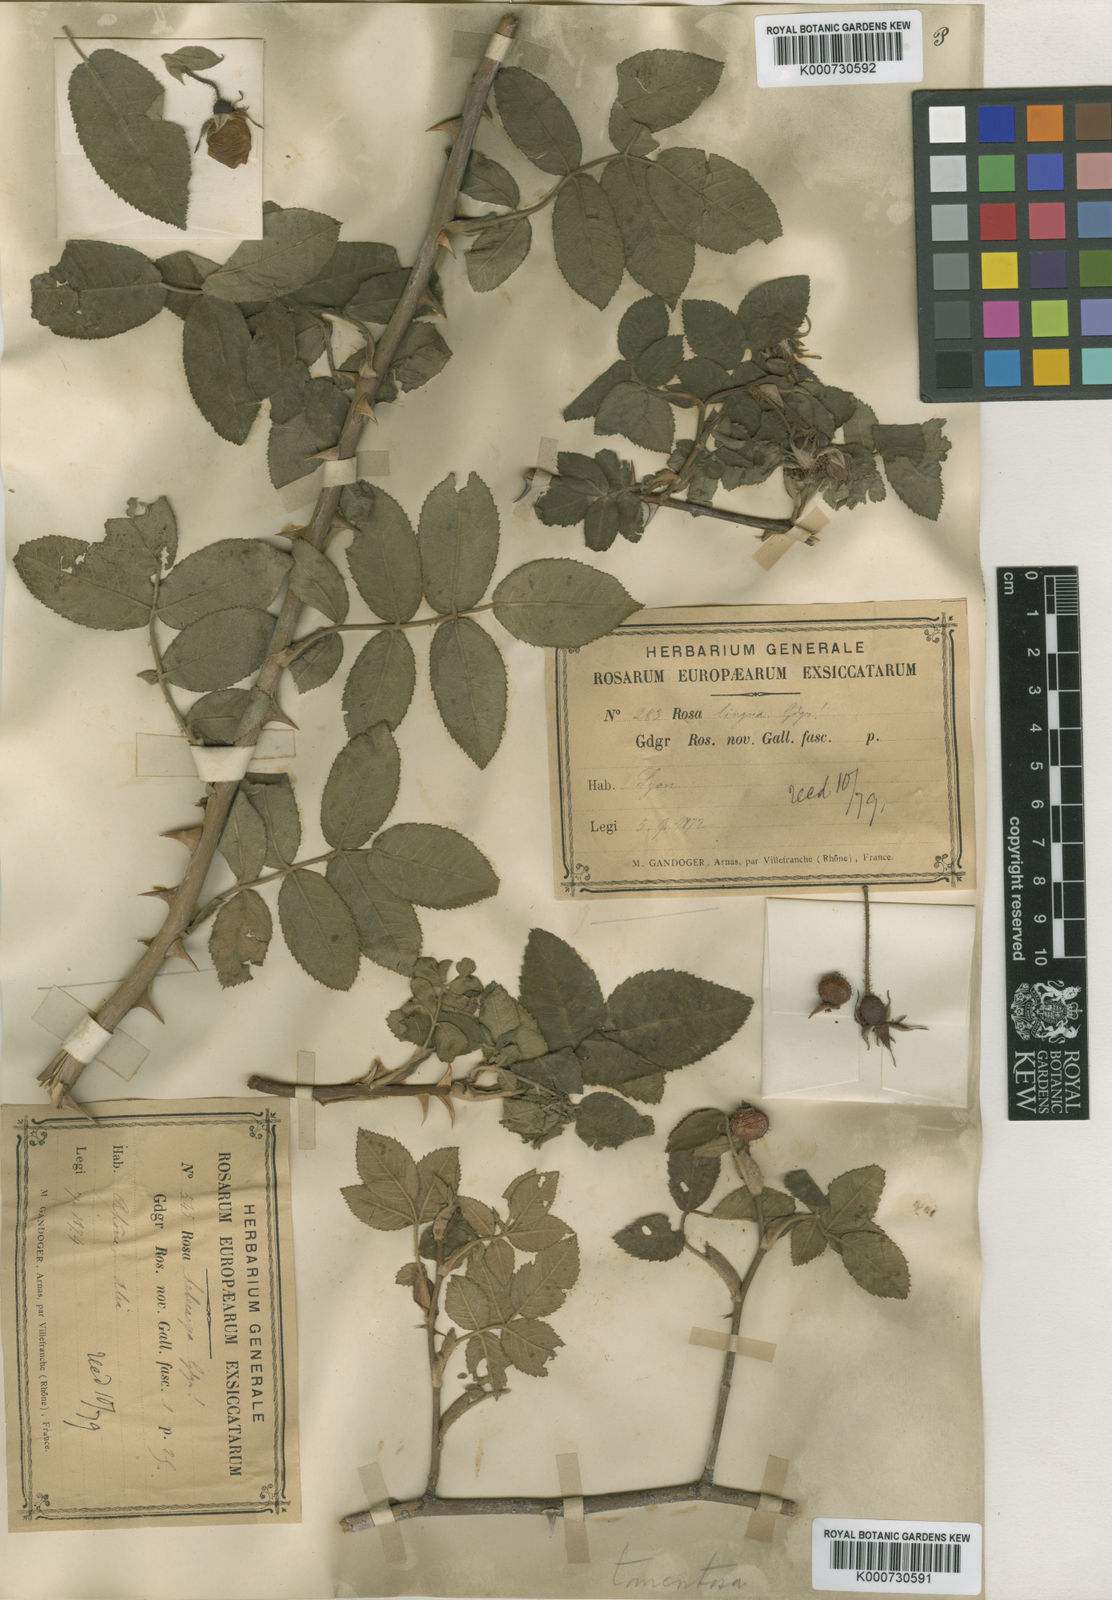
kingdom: Plantae
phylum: Tracheophyta
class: Magnoliopsida
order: Rosales
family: Rosaceae
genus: Rosa
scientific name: Rosa tomentosa
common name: Downy rose
